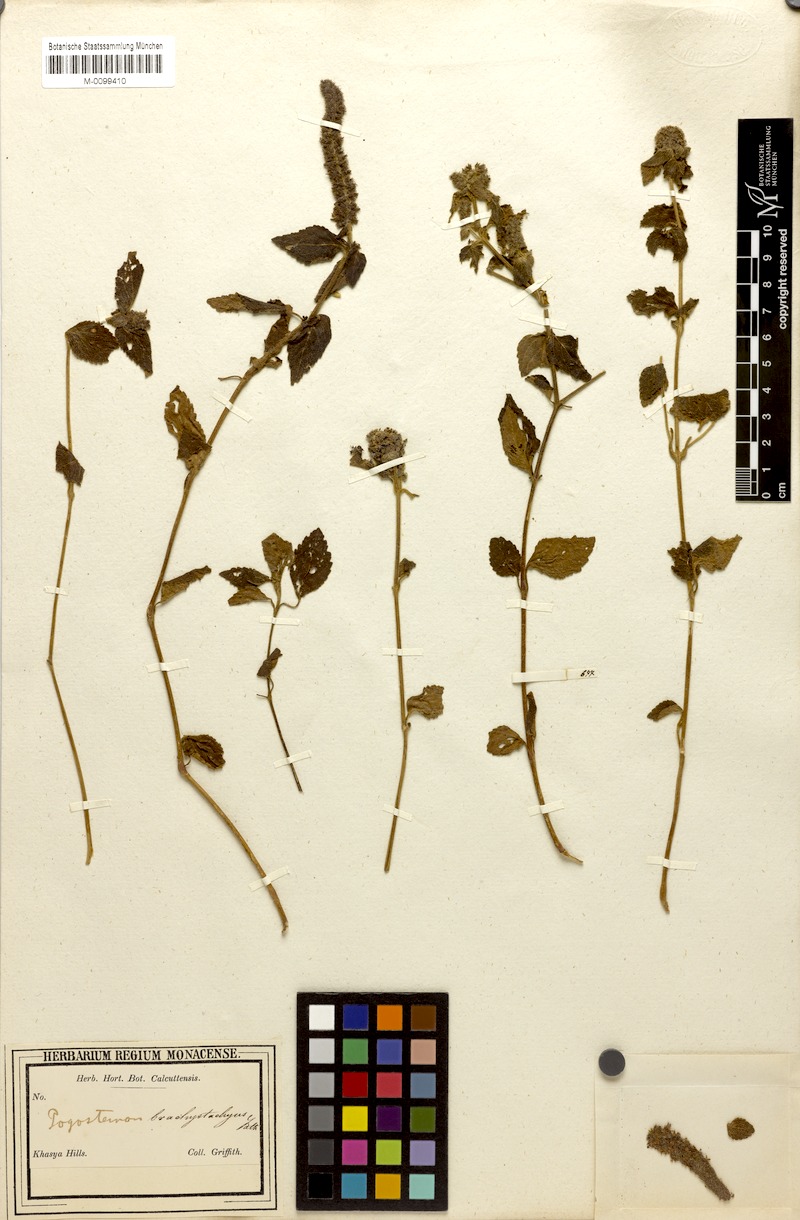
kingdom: Plantae
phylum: Tracheophyta
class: Magnoliopsida
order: Lamiales
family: Lamiaceae
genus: Pogostemon
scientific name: Pogostemon brachystachyus
